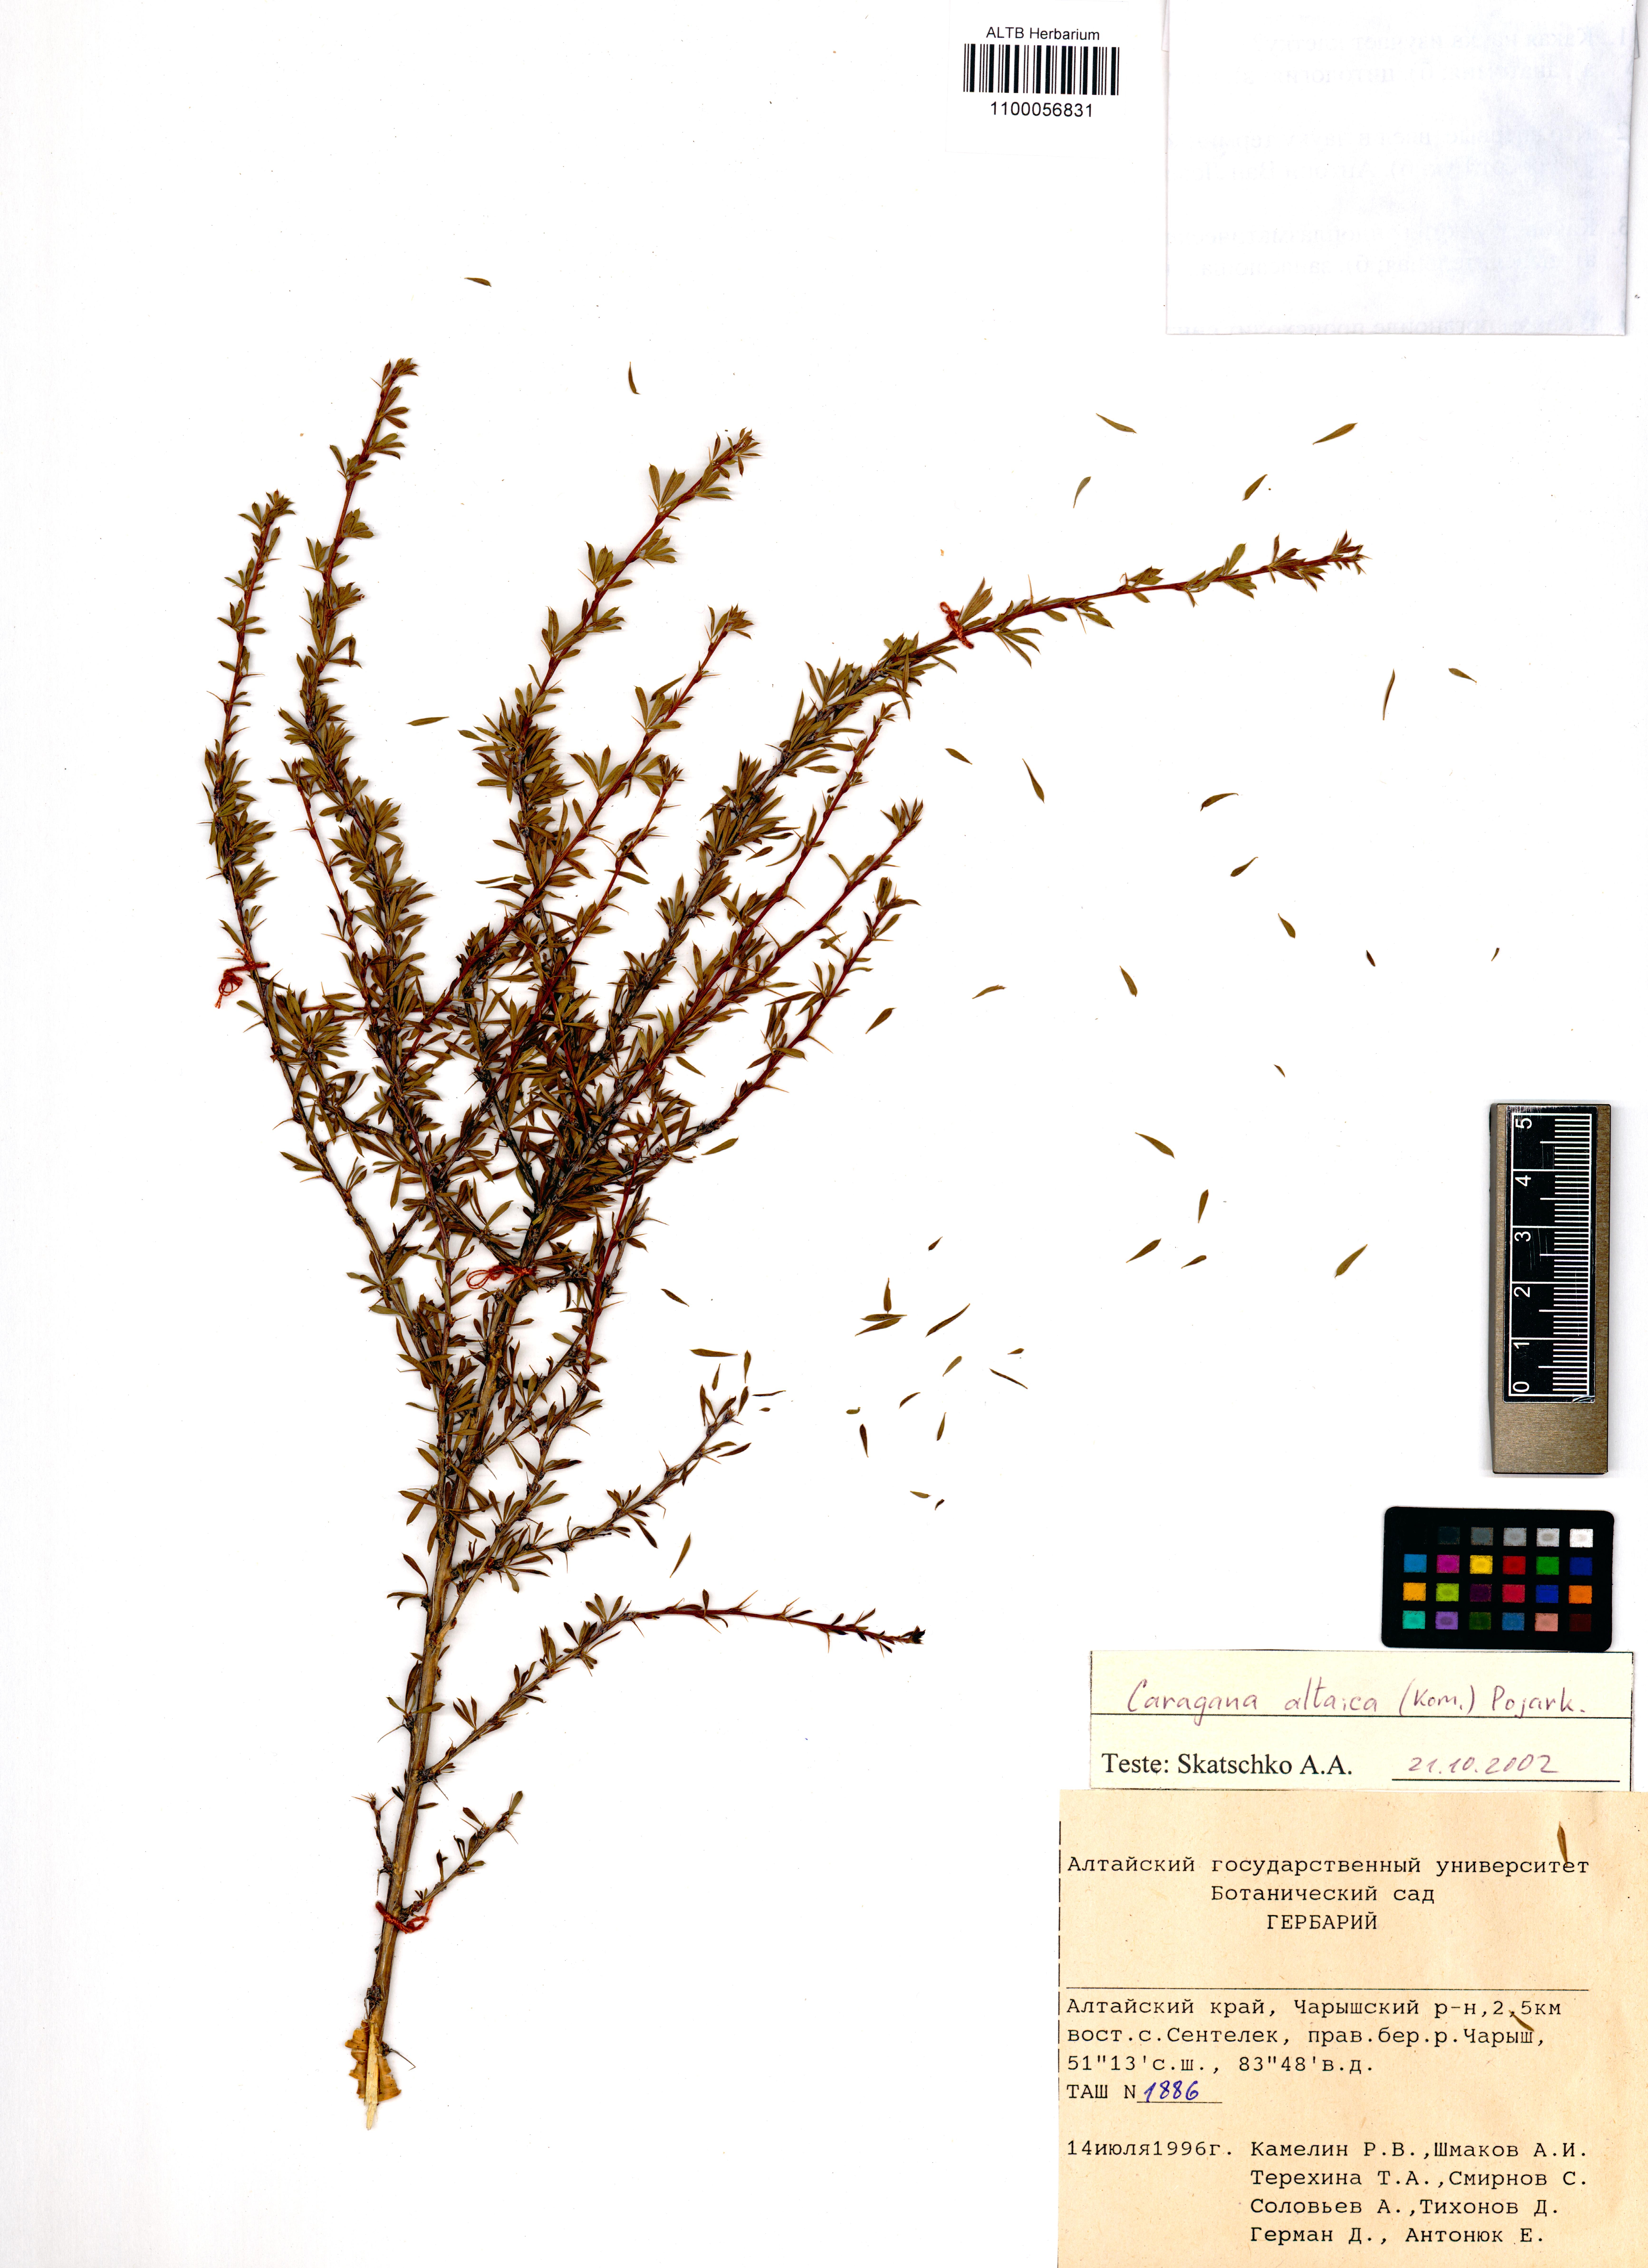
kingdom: Plantae
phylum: Tracheophyta
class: Magnoliopsida
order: Fabales
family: Fabaceae
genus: Caragana
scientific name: Caragana pygmaea
